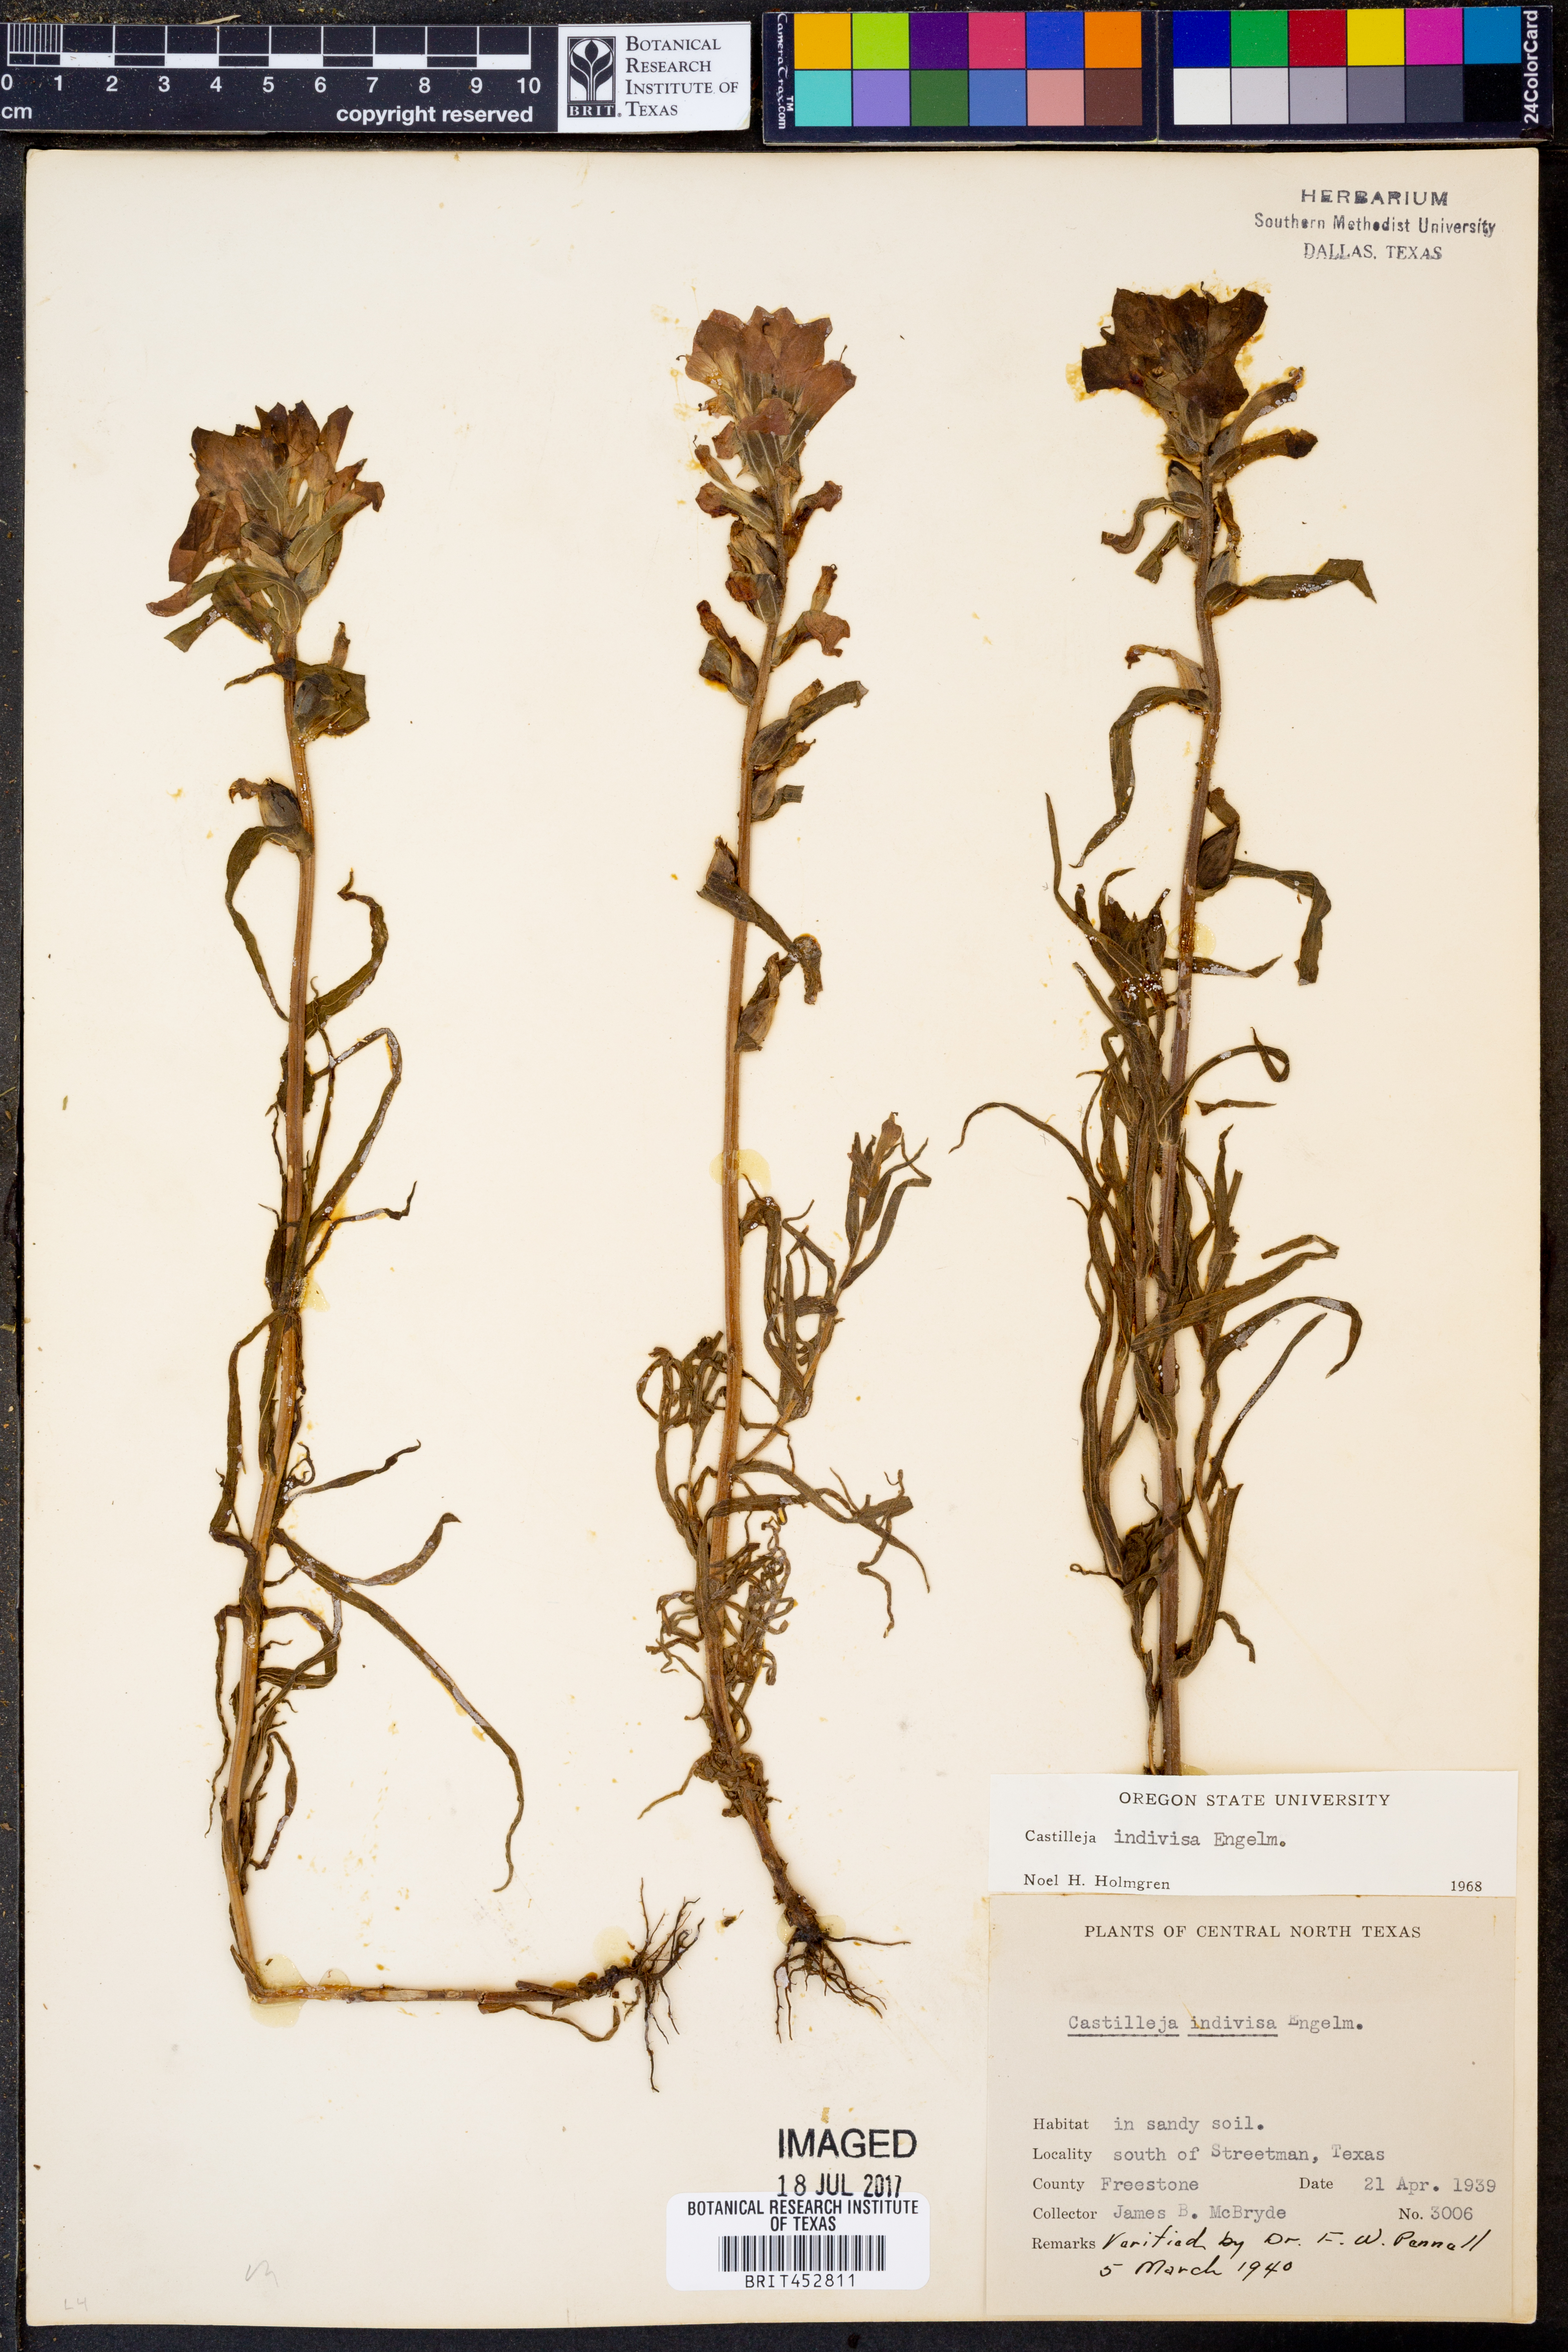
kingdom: Plantae
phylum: Tracheophyta
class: Magnoliopsida
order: Lamiales
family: Orobanchaceae
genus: Castilleja
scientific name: Castilleja indivisa
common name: Texas paintbrush
